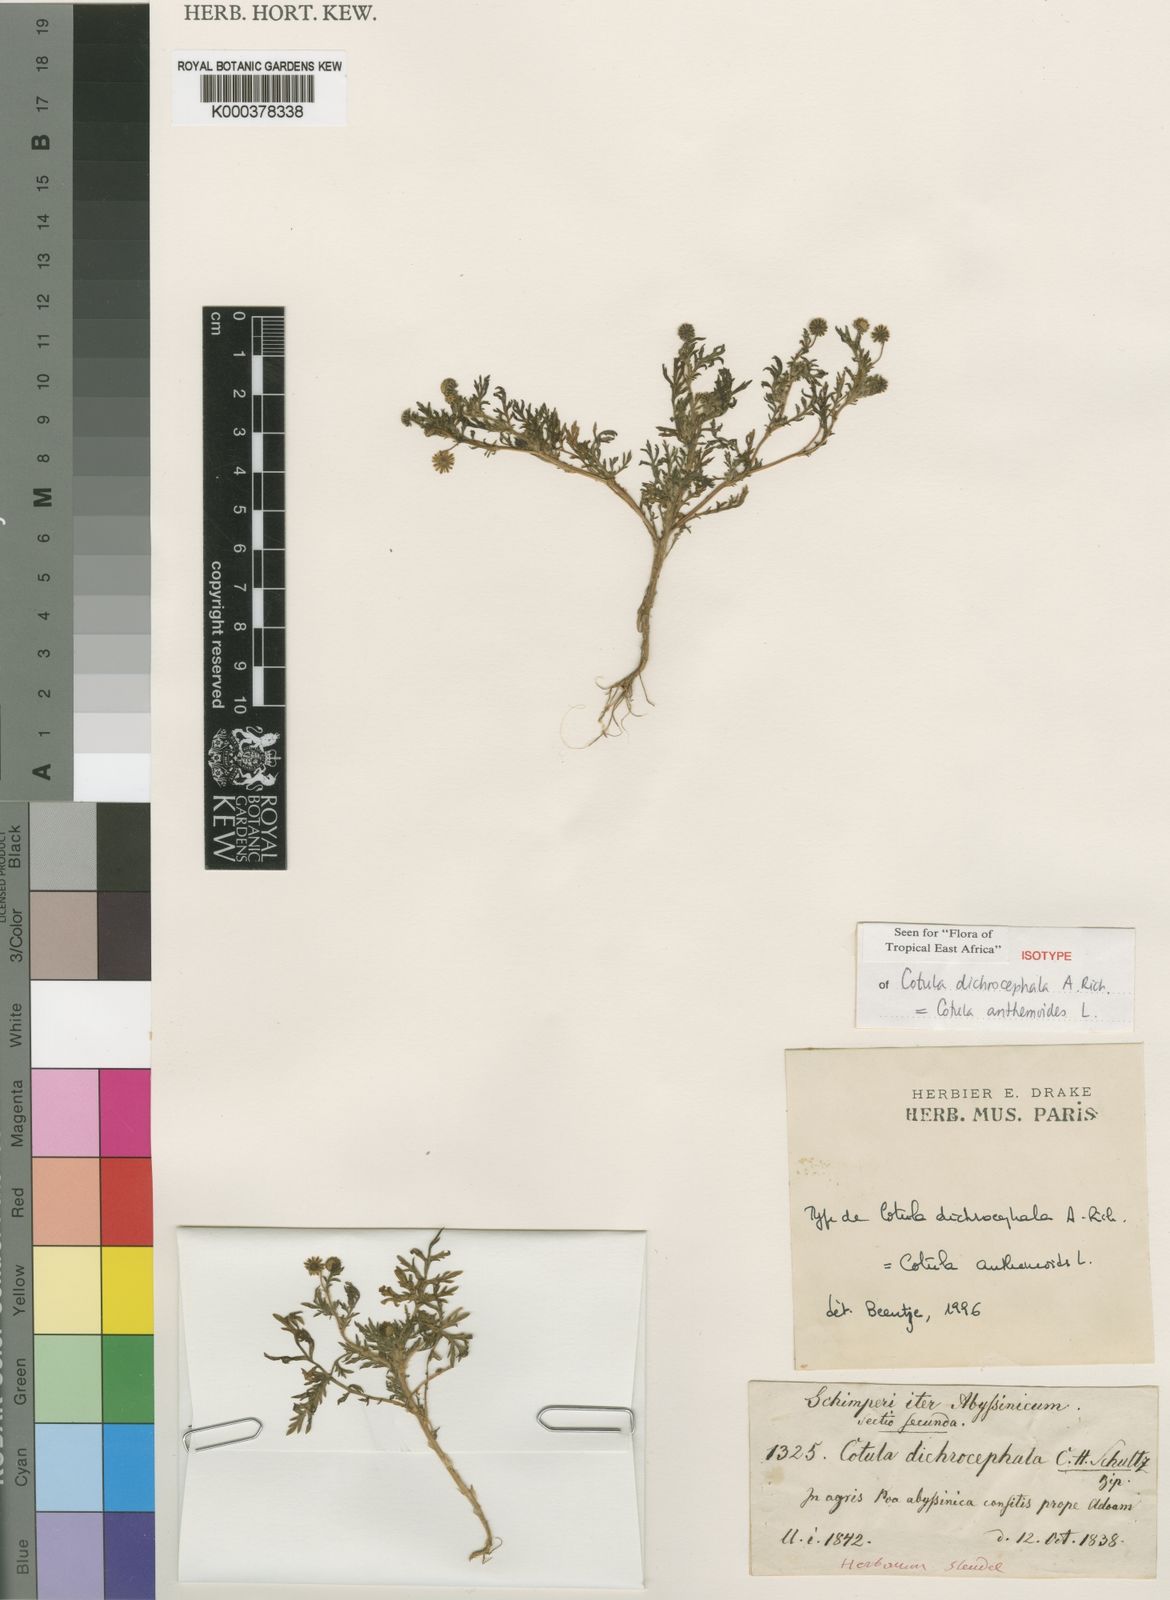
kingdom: Plantae
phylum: Tracheophyta
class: Magnoliopsida
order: Asterales
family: Asteraceae
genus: Cotula
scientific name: Cotula anthemoides
